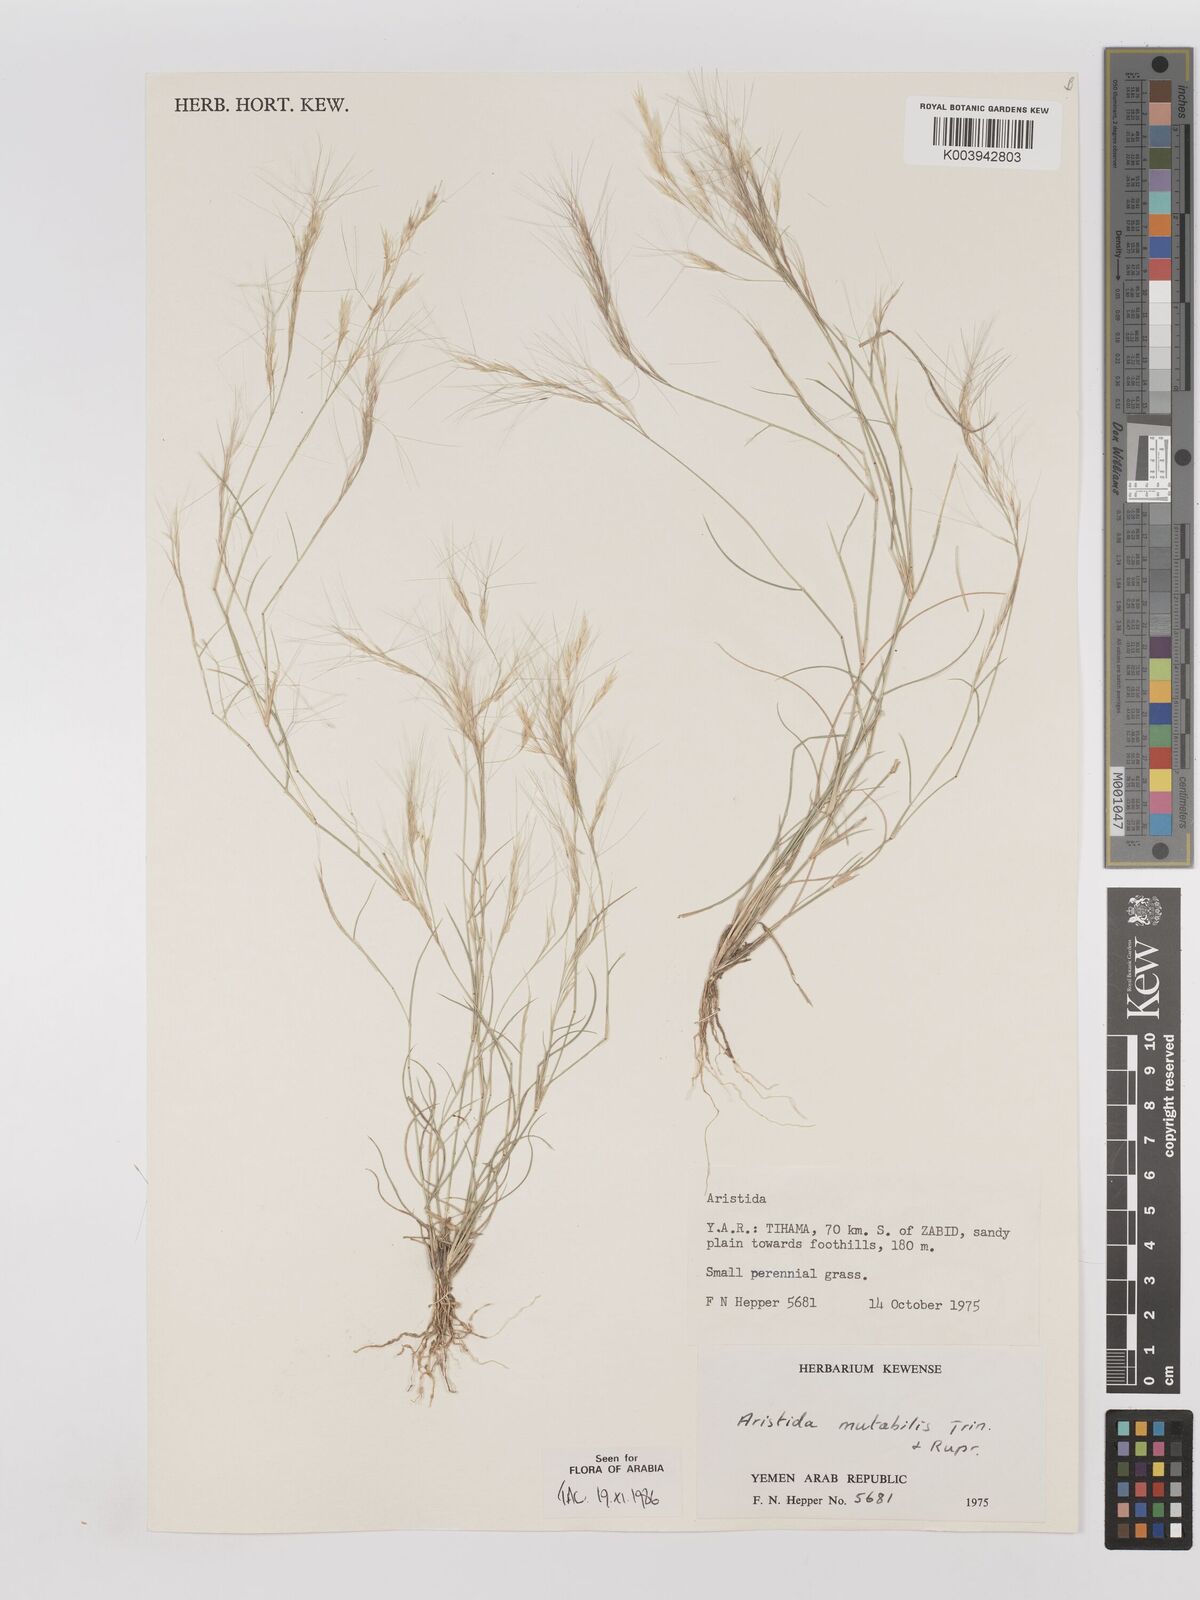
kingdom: Plantae
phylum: Tracheophyta
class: Liliopsida
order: Poales
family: Poaceae
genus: Aristida
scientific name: Aristida mutabilis
